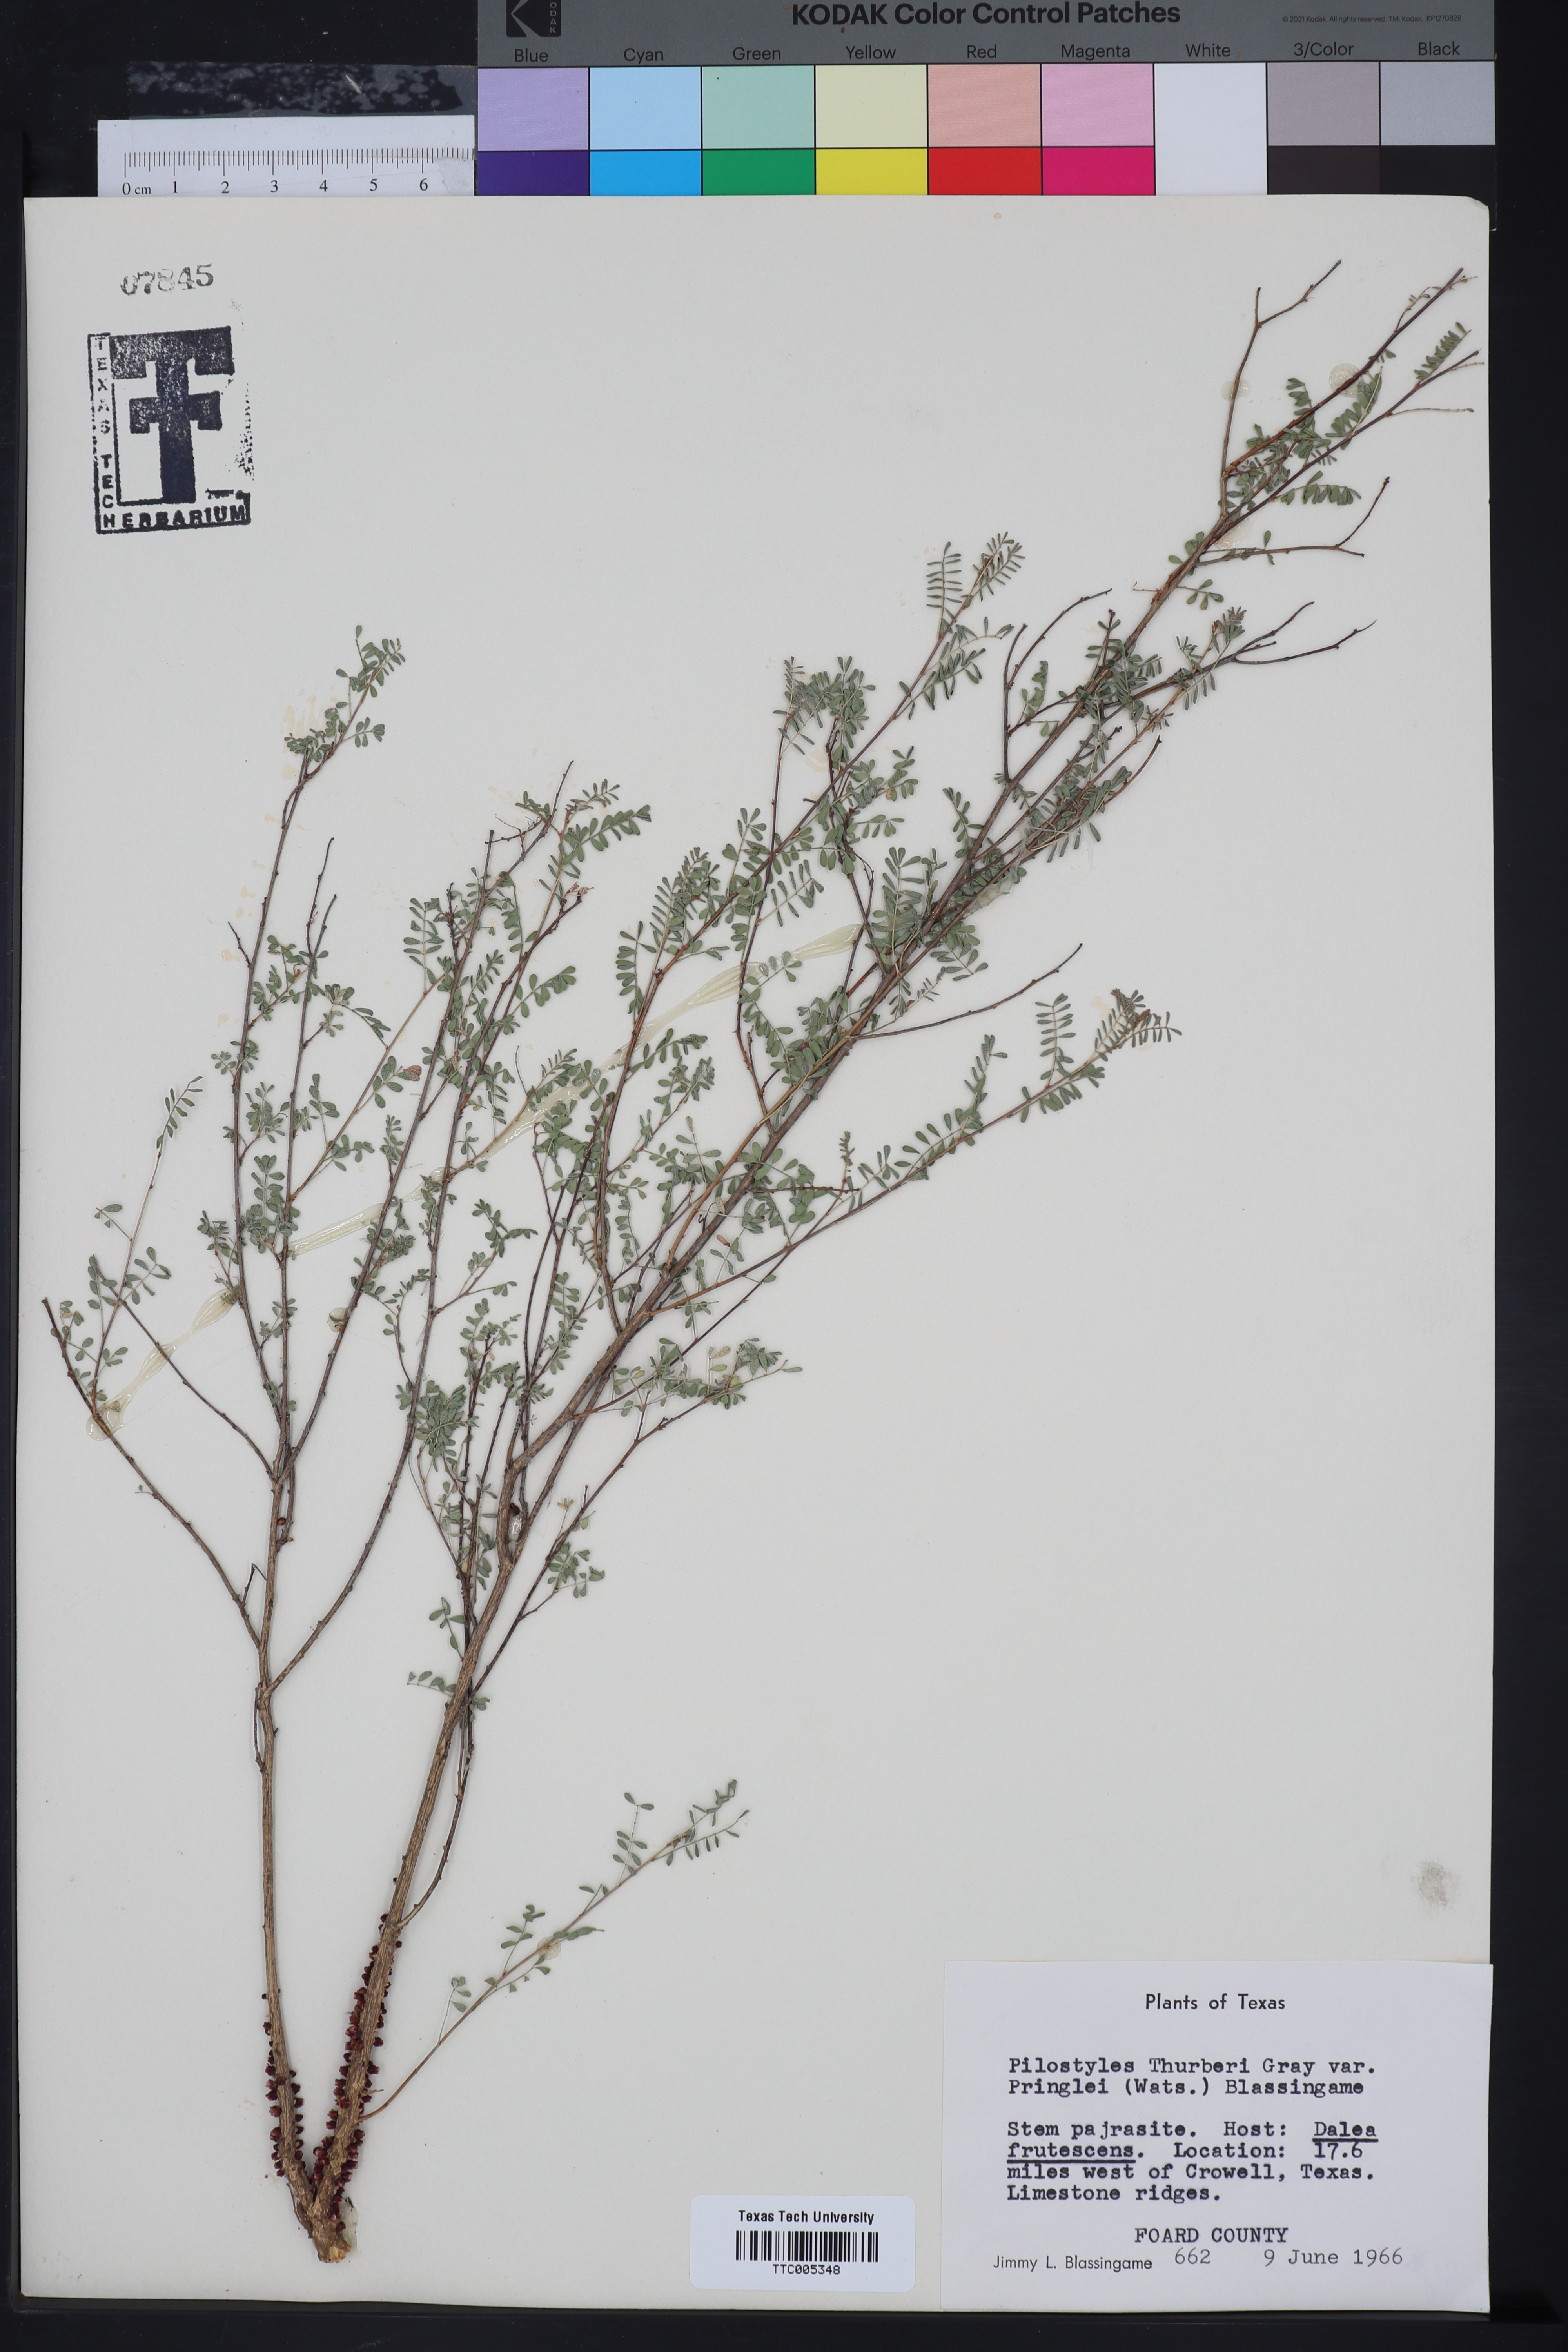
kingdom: Plantae
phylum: Tracheophyta
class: Magnoliopsida
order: Cucurbitales
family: Apodanthaceae
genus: Pilostyles
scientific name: Pilostyles thurberi
